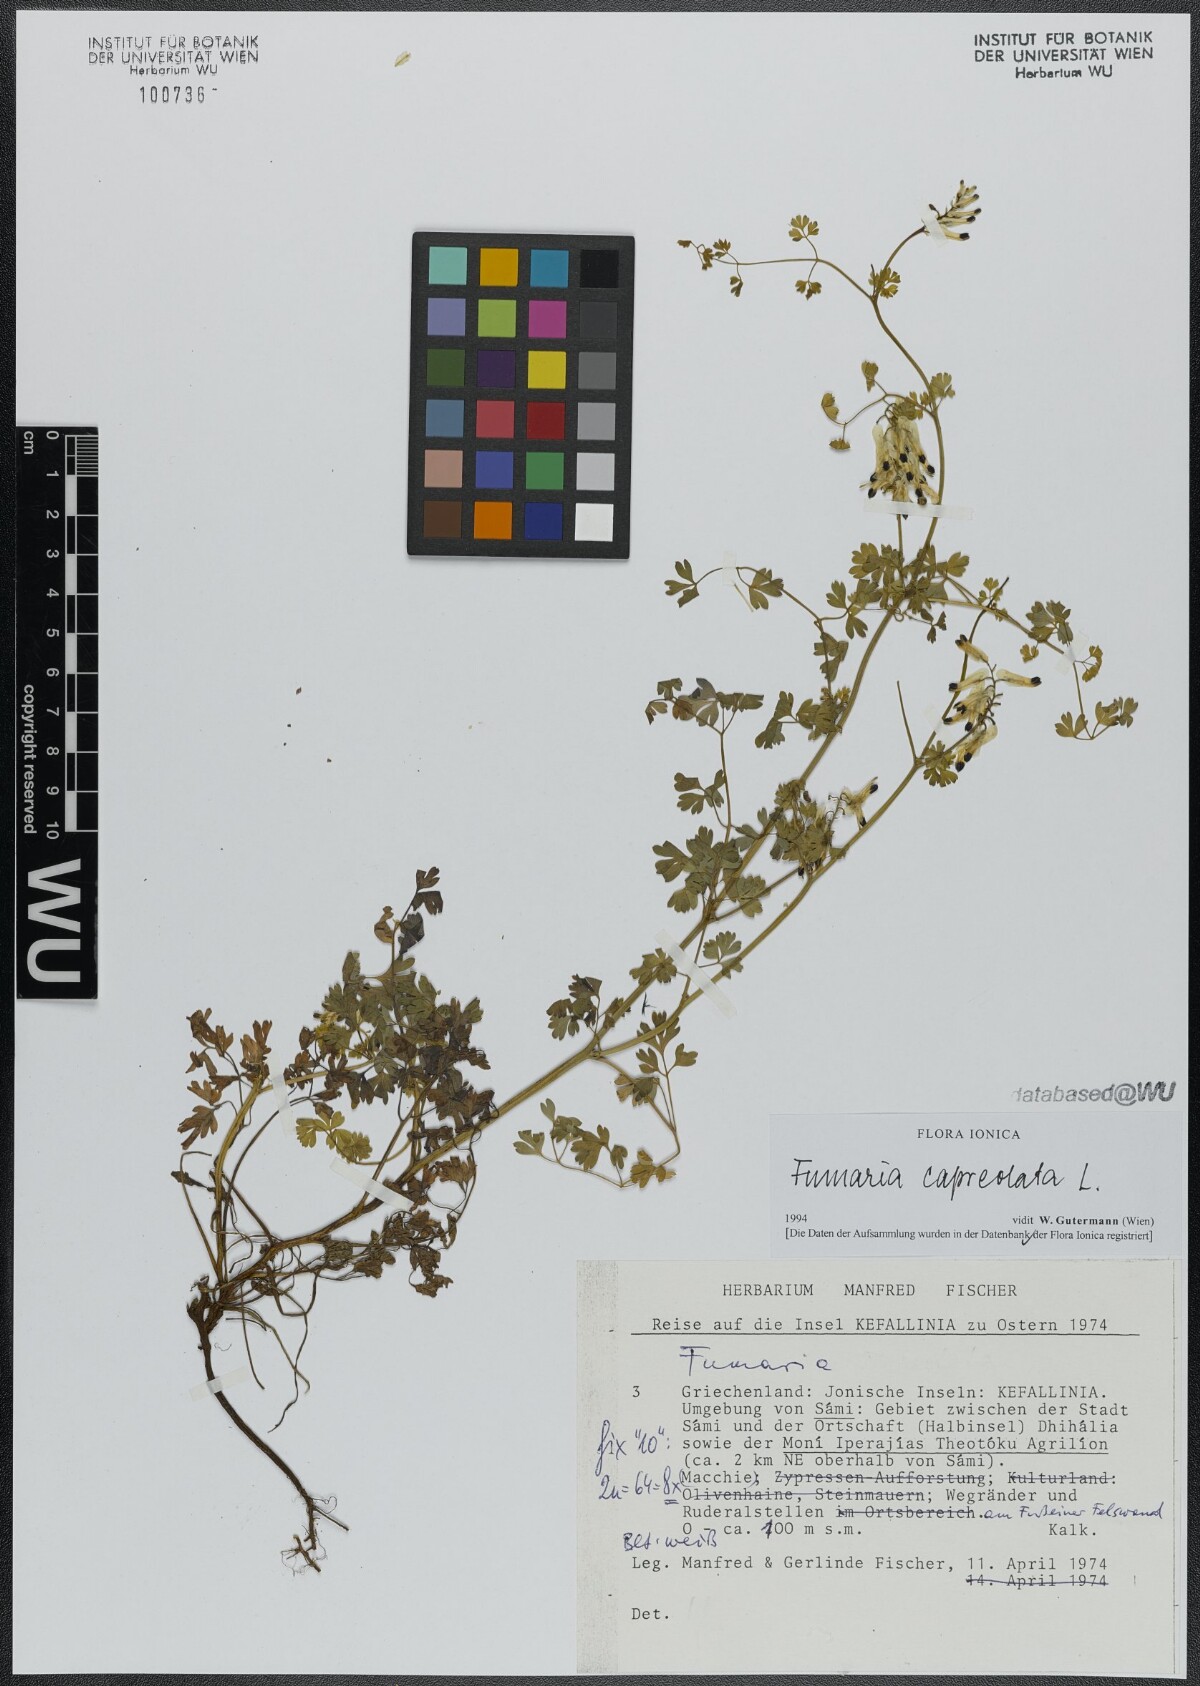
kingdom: Plantae
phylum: Tracheophyta
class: Magnoliopsida
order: Ranunculales
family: Papaveraceae
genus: Fumaria
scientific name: Fumaria capreolata
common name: White ramping-fumitory
